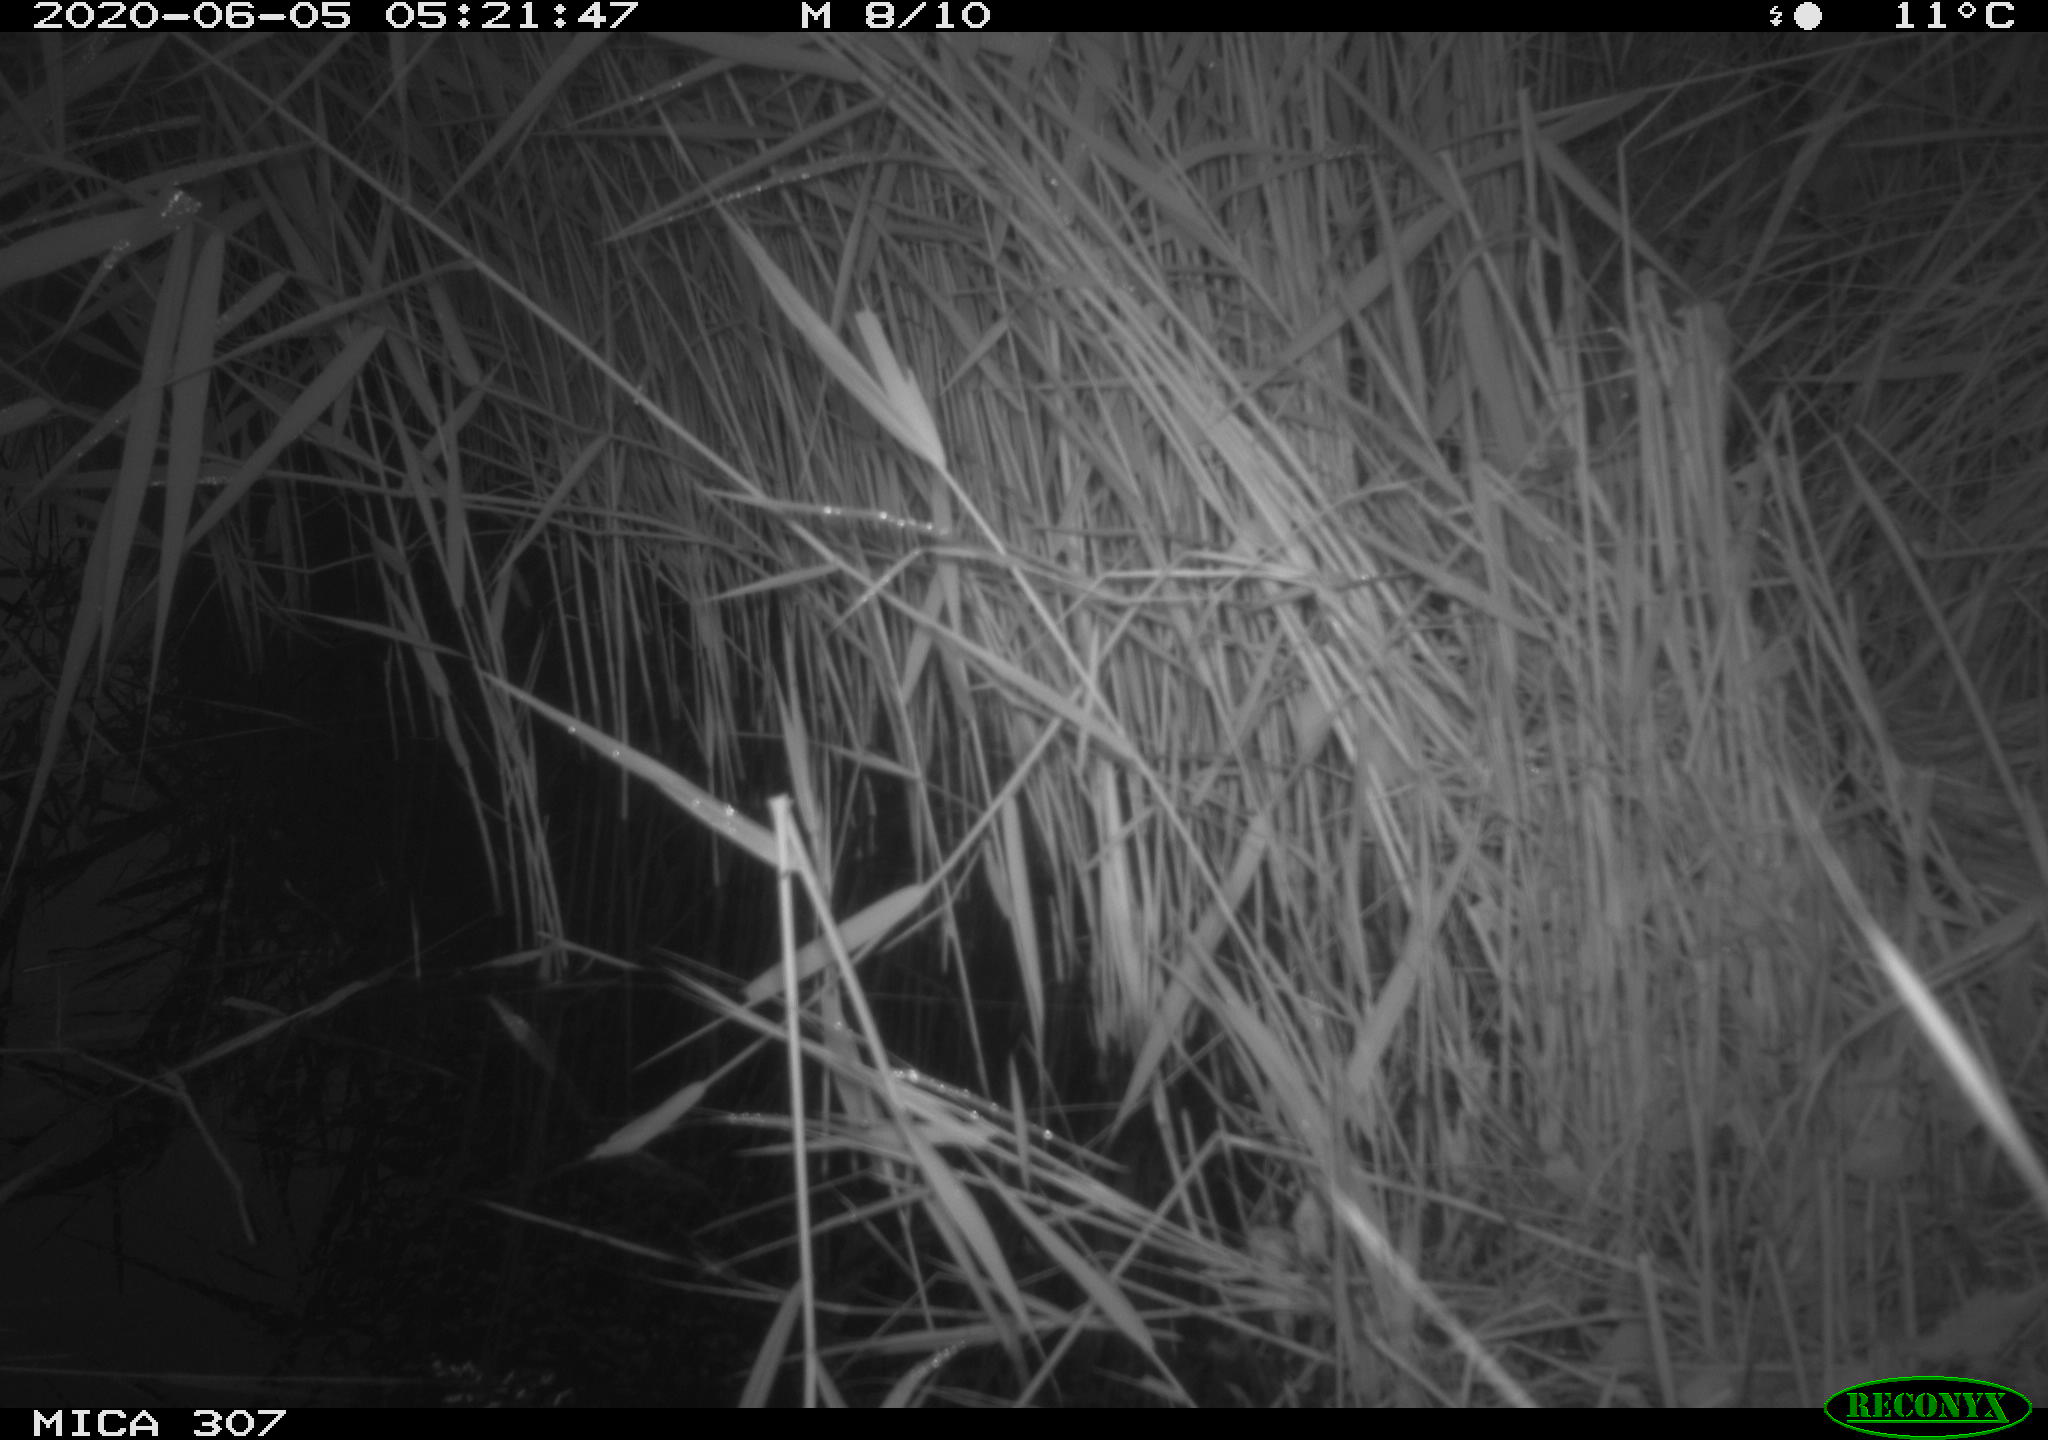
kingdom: Animalia
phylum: Chordata
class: Mammalia
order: Rodentia
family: Muridae
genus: Rattus
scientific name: Rattus norvegicus
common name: Brown rat
